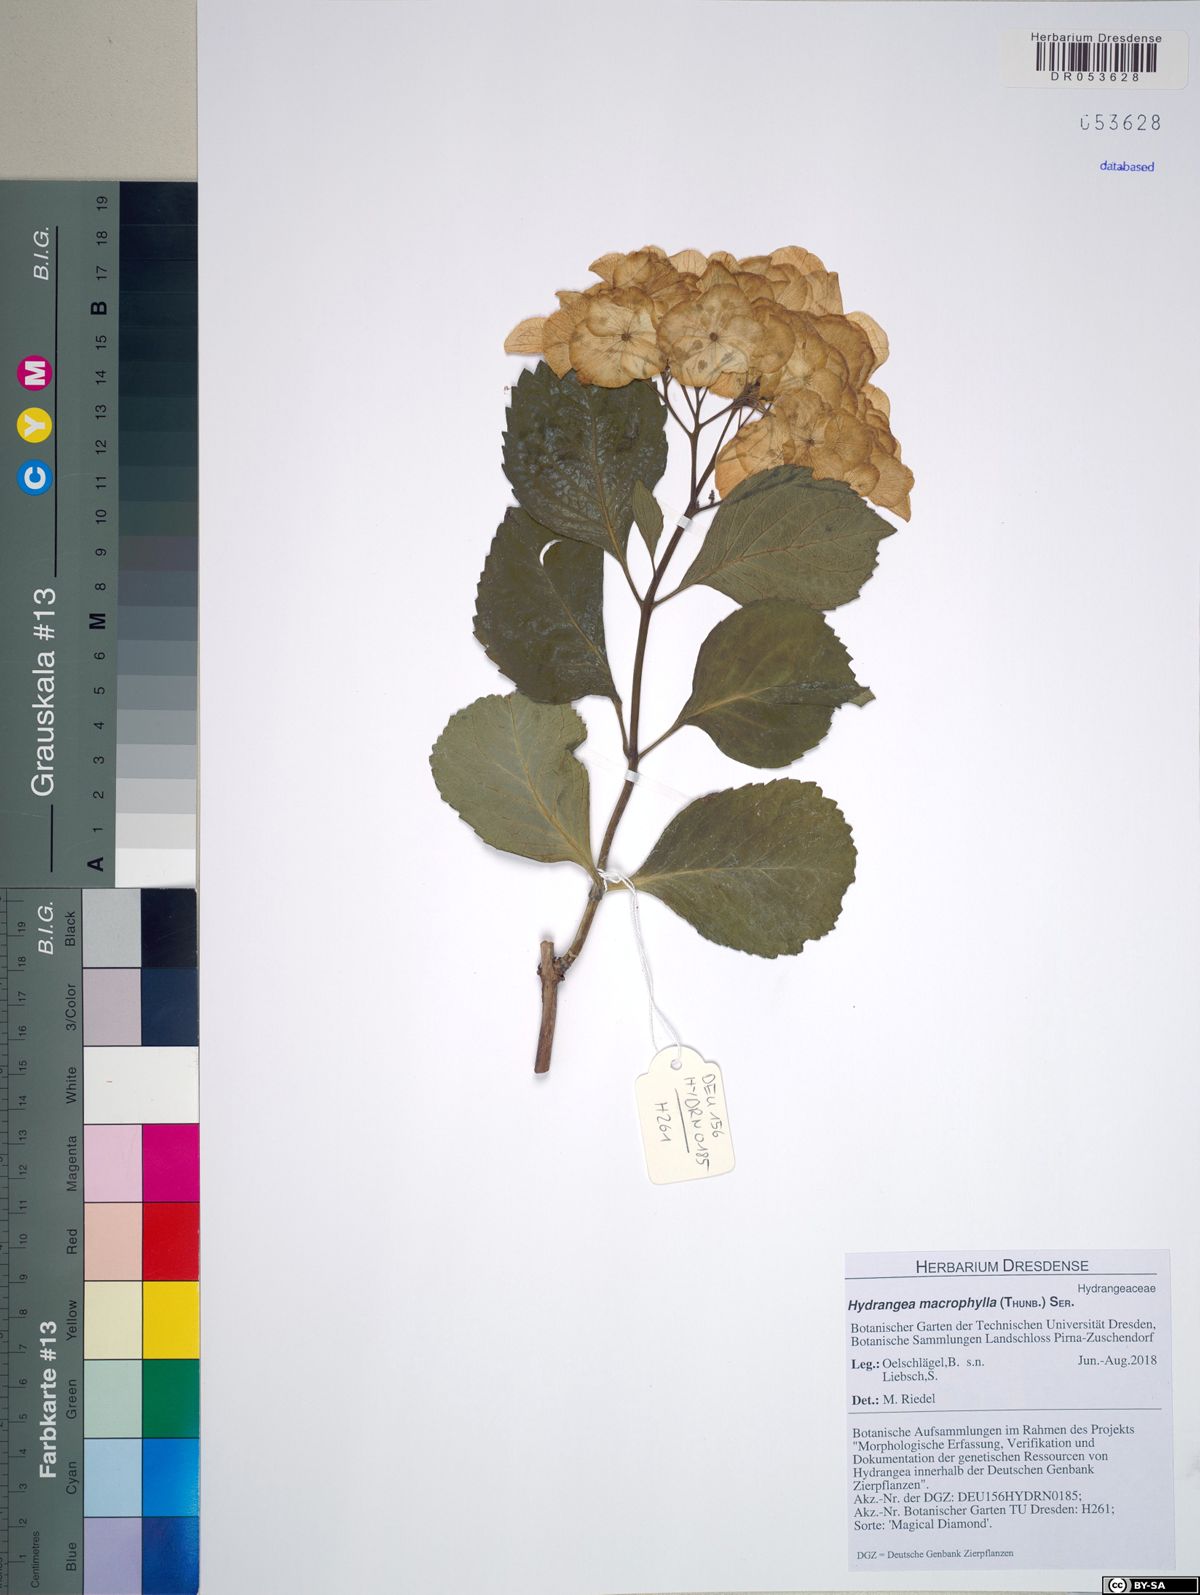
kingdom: Plantae
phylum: Tracheophyta
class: Magnoliopsida
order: Cornales
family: Hydrangeaceae
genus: Hydrangea
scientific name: Hydrangea macrophylla
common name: Hydrangea
